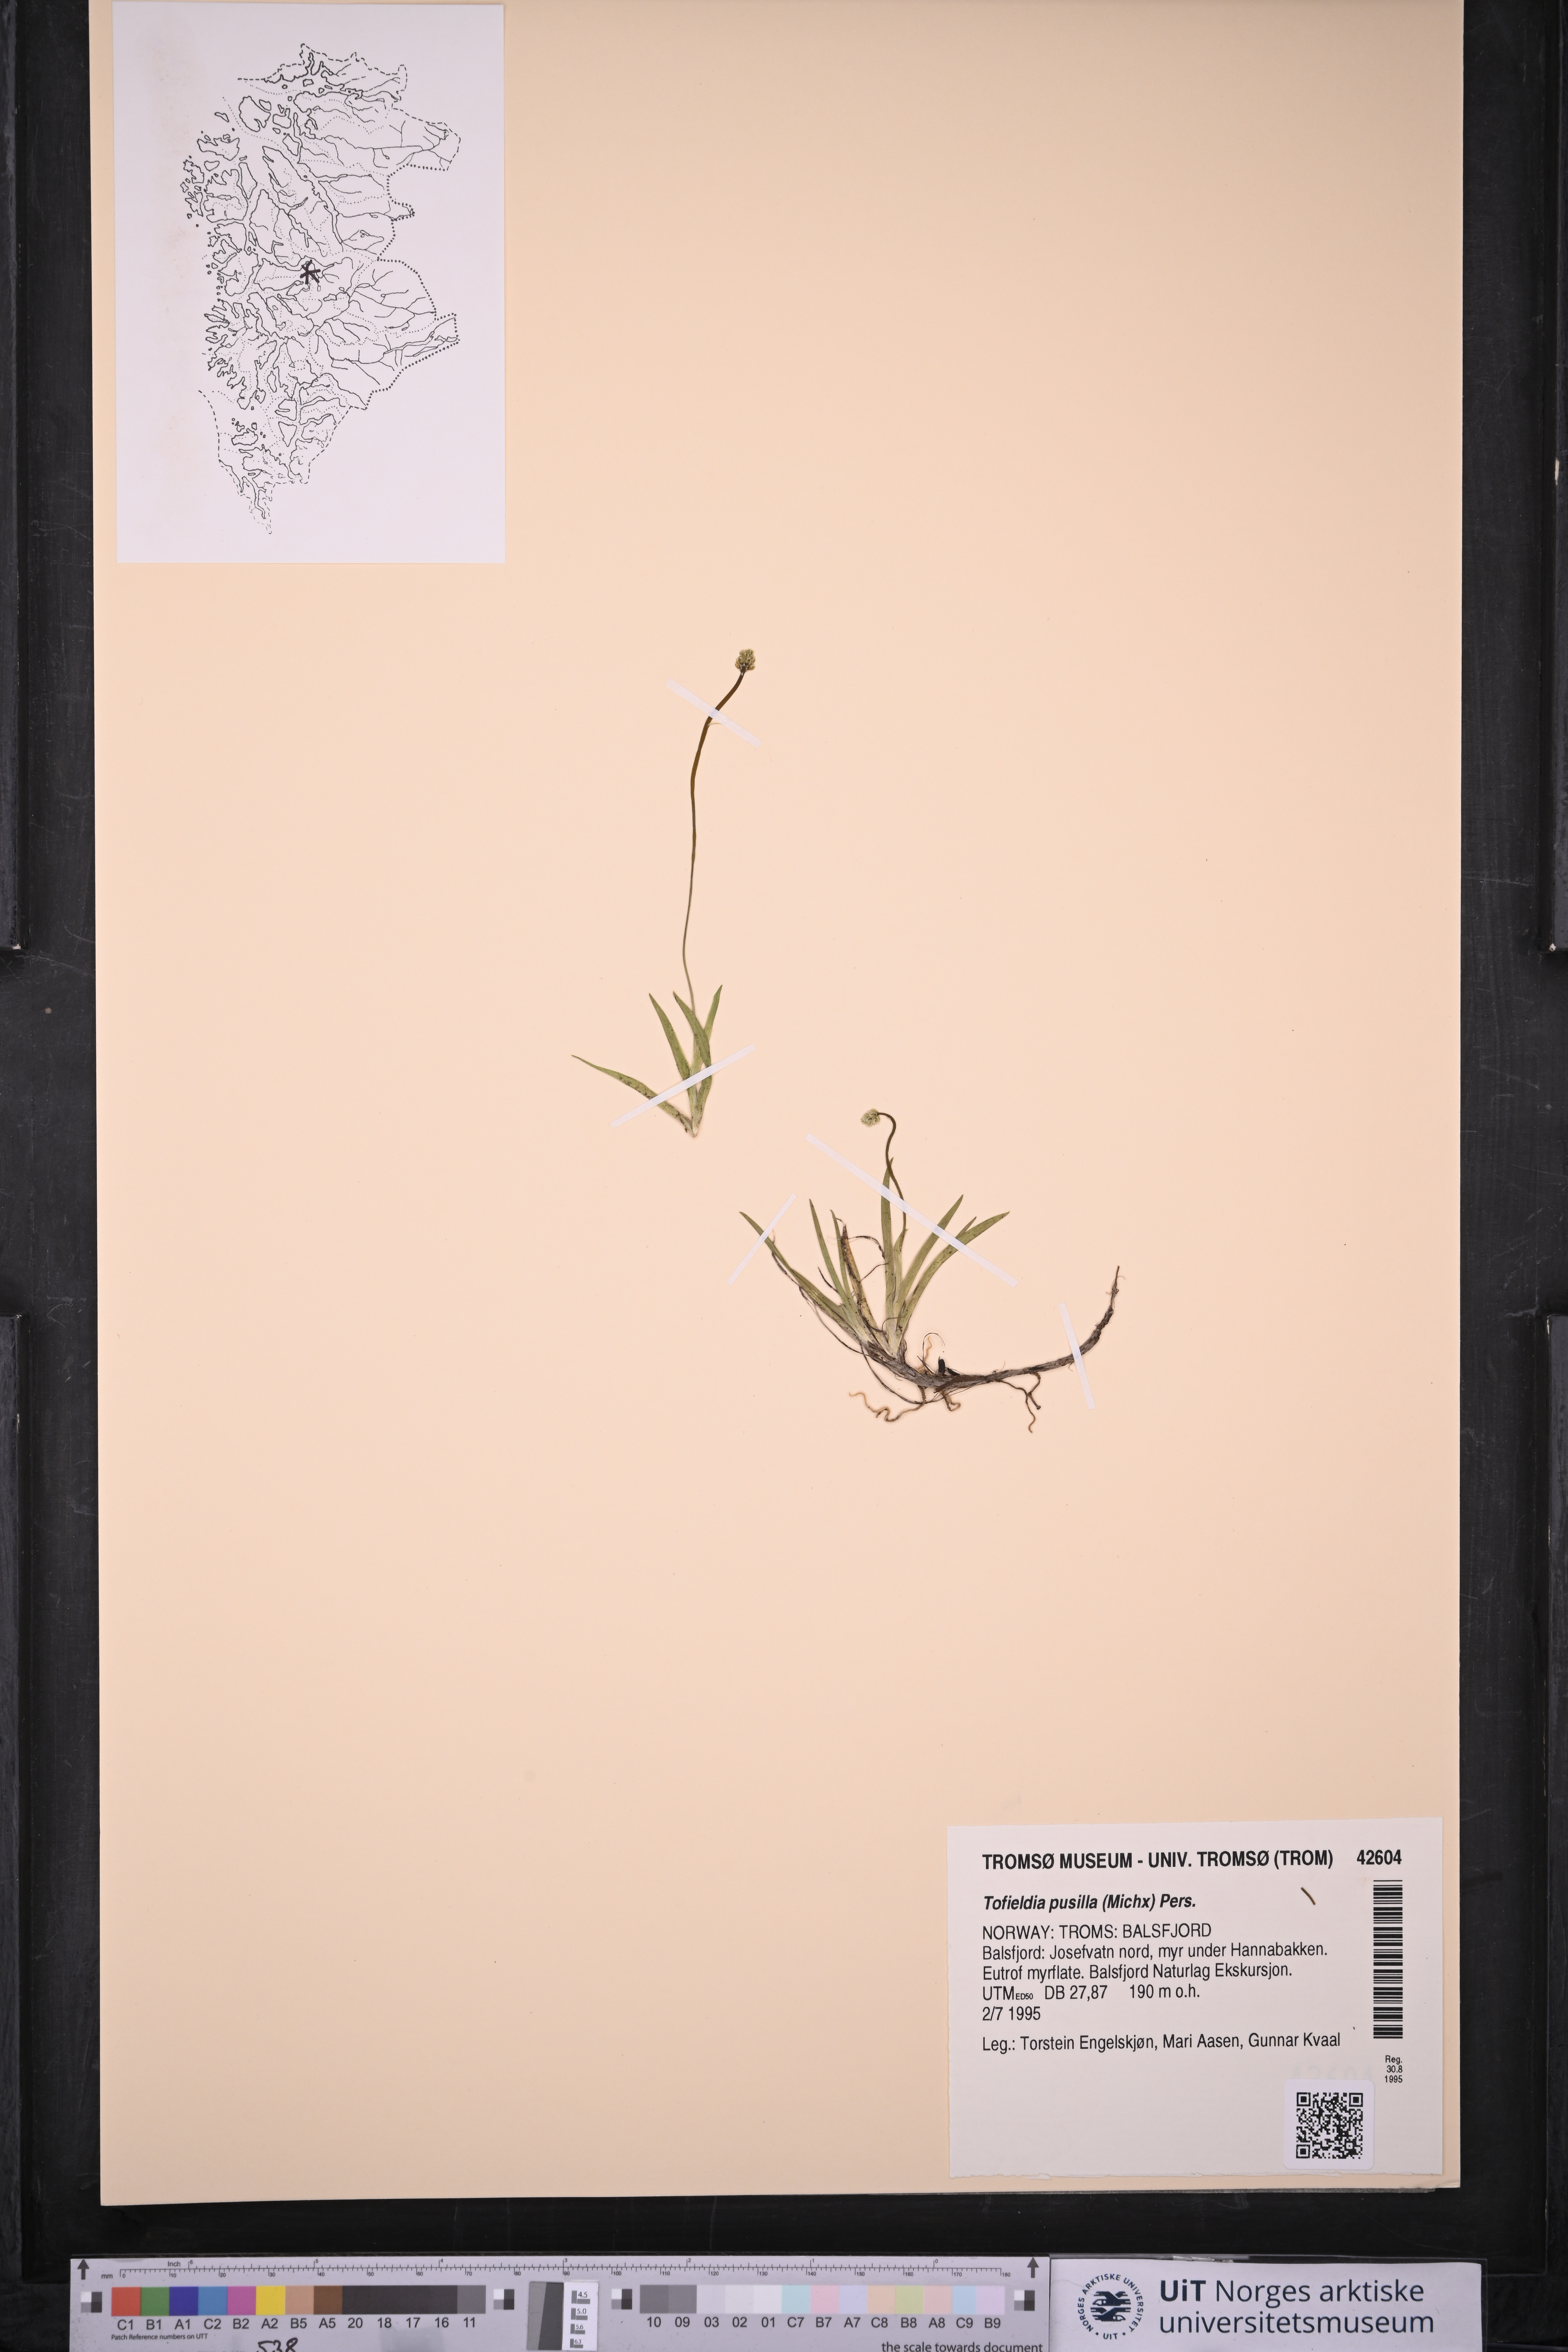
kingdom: Plantae
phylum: Tracheophyta
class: Liliopsida
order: Alismatales
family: Tofieldiaceae
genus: Tofieldia
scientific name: Tofieldia pusilla
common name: Scottish false asphodel
